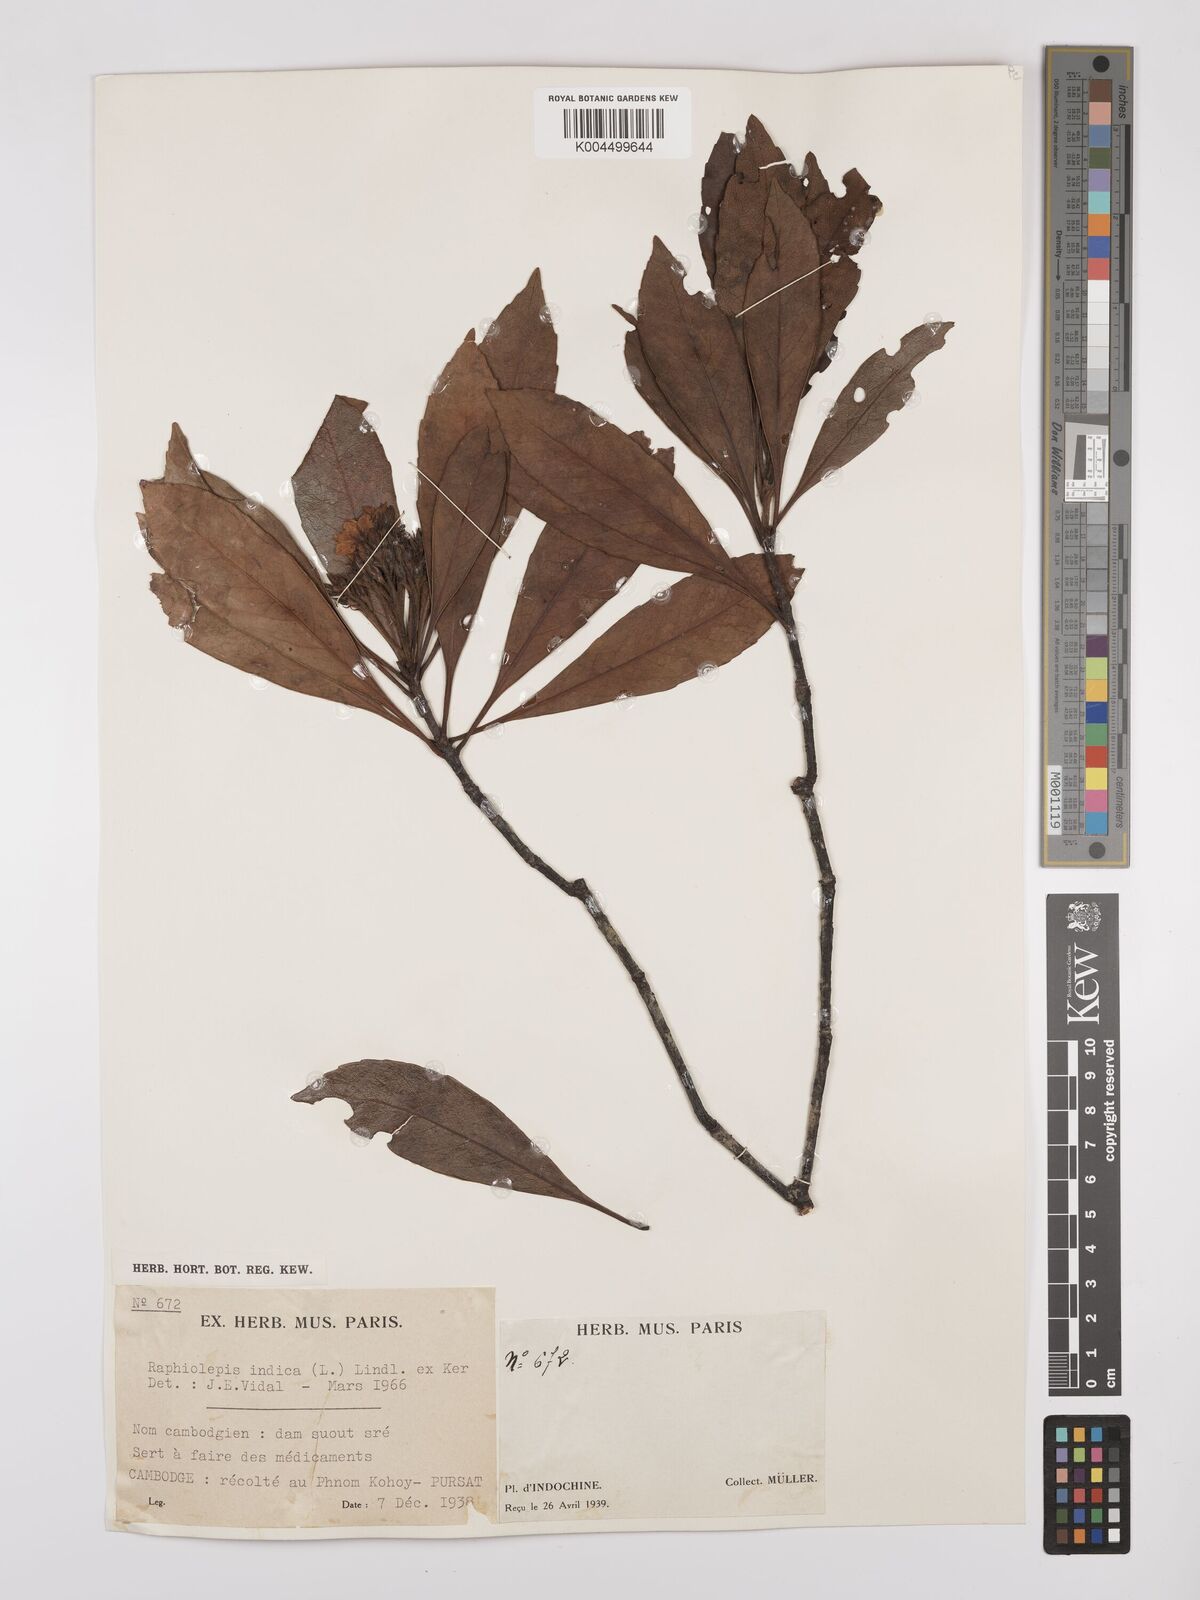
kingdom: Plantae
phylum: Tracheophyta
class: Magnoliopsida
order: Rosales
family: Rosaceae
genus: Rhaphiolepis
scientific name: Rhaphiolepis indica
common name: India-hawthorn
